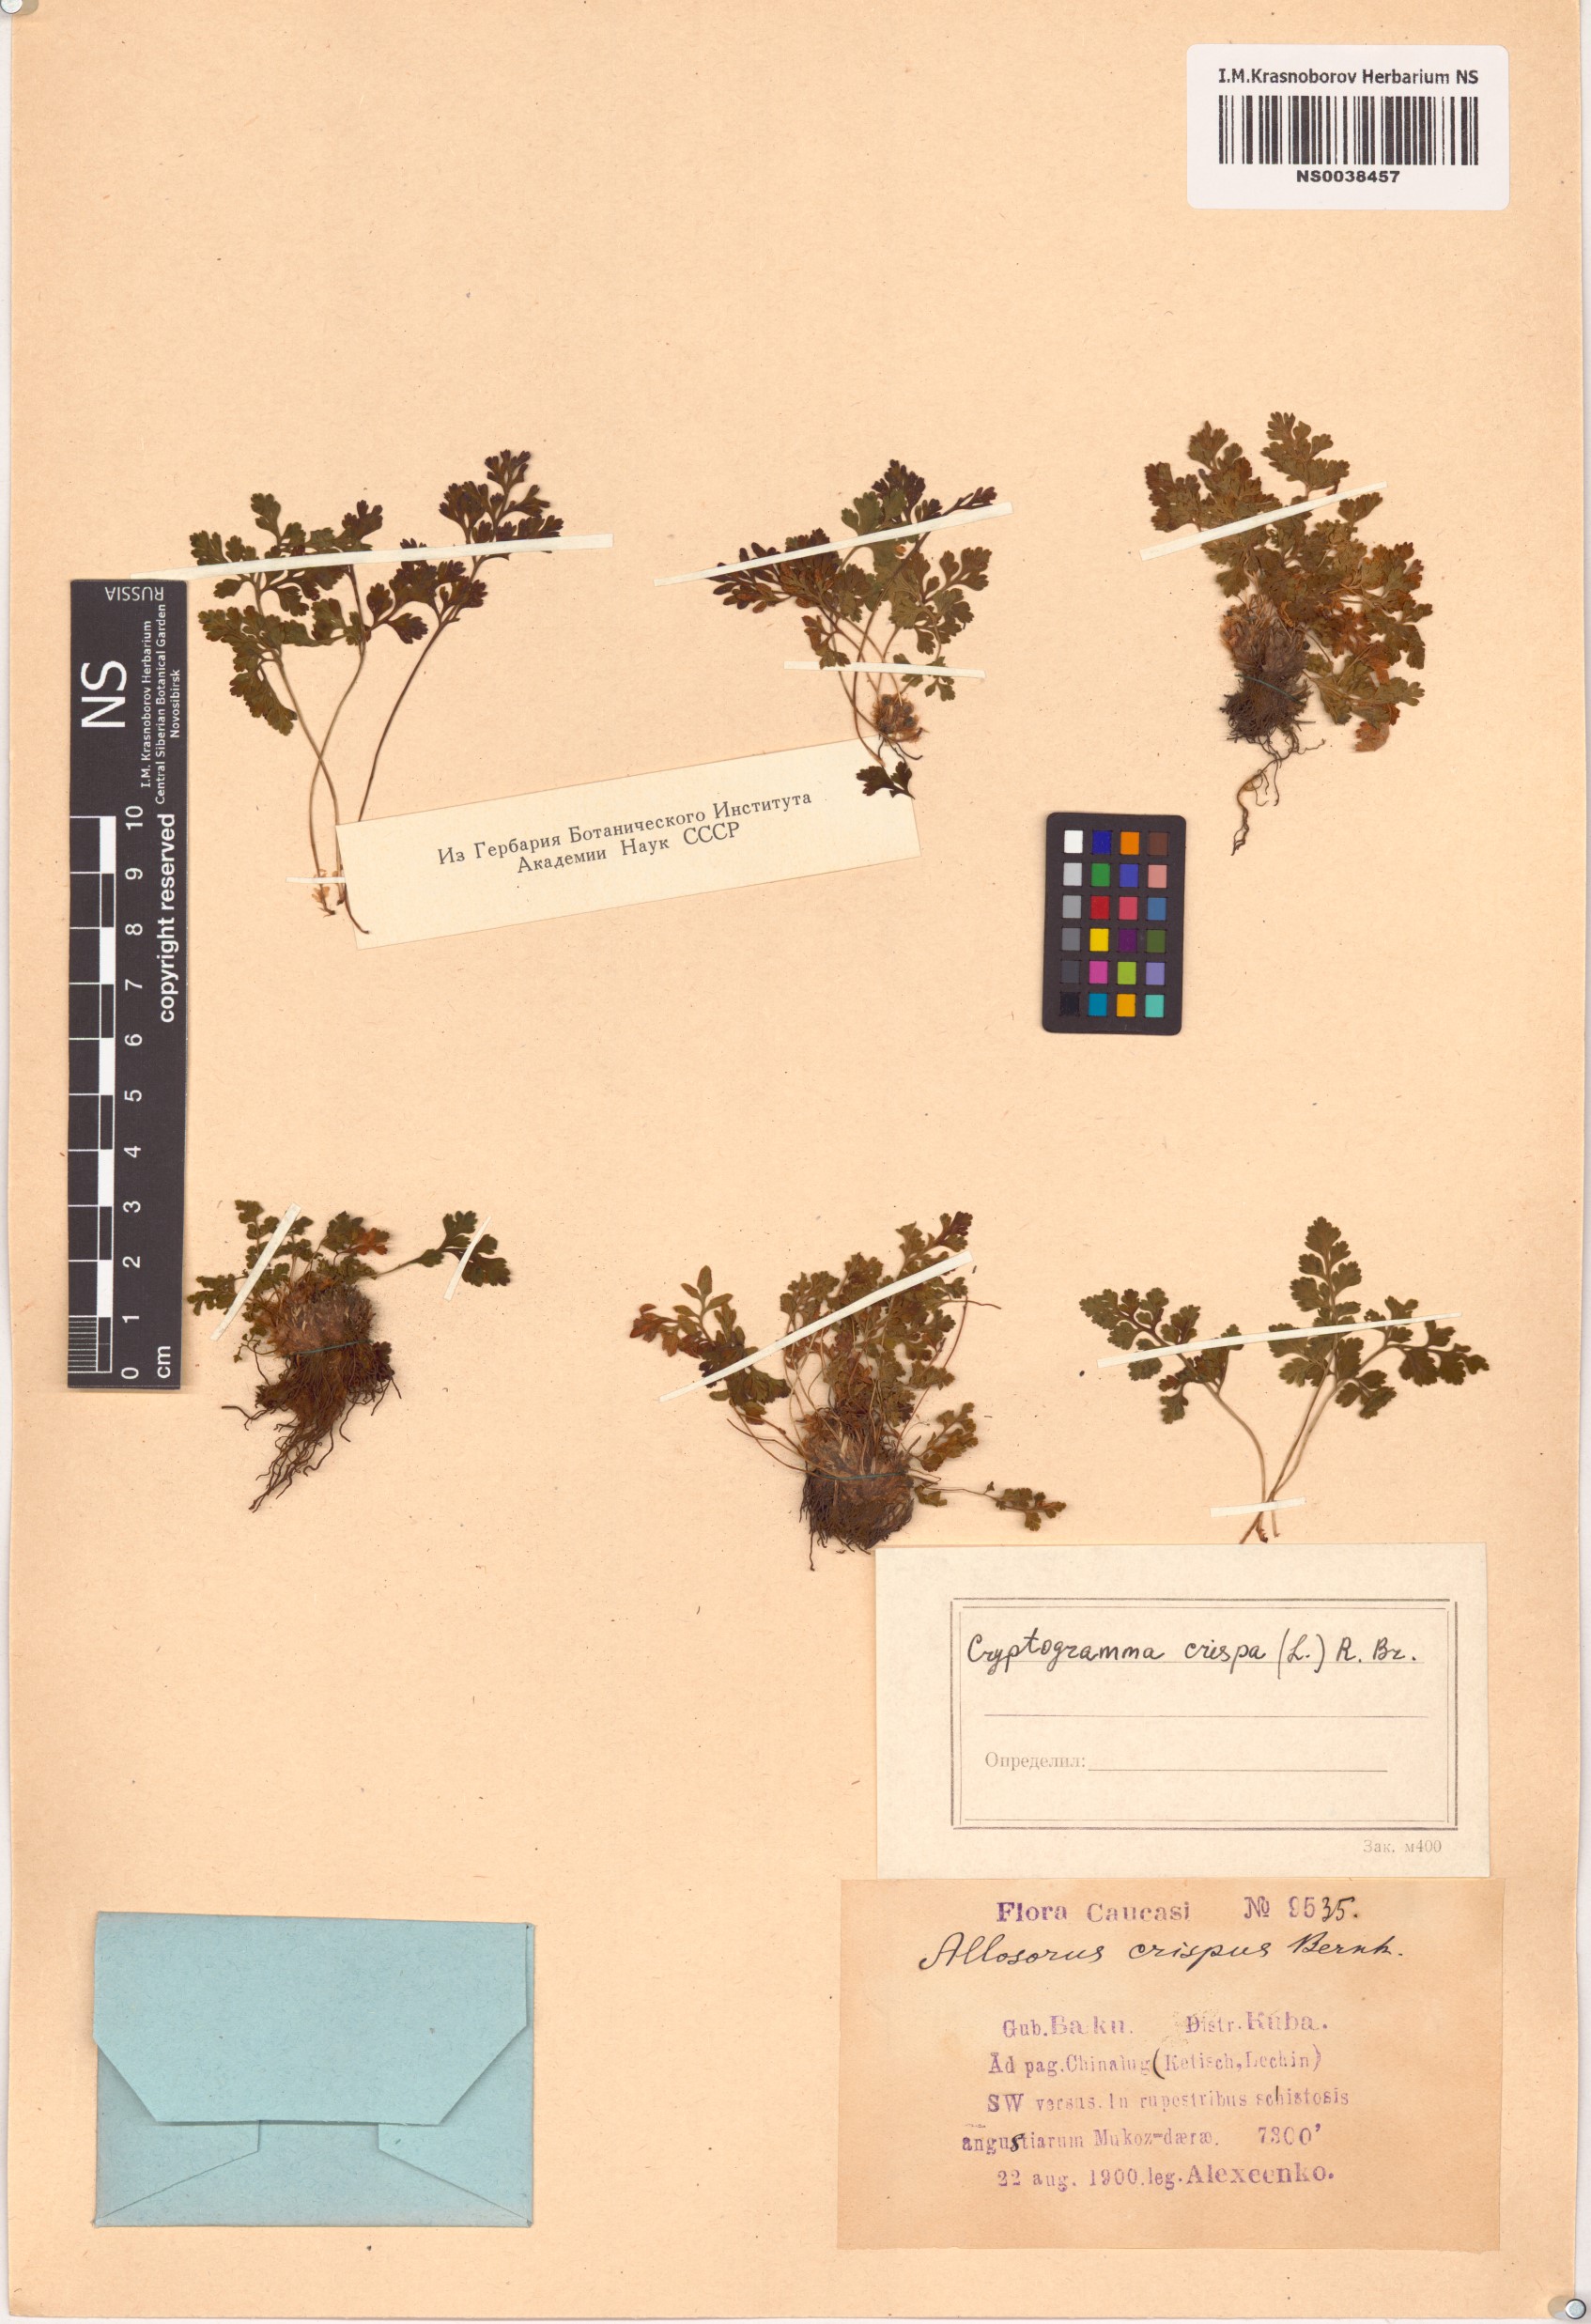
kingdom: Plantae
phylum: Tracheophyta
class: Polypodiopsida
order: Polypodiales
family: Pteridaceae
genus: Cryptogramma
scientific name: Cryptogramma crispa
